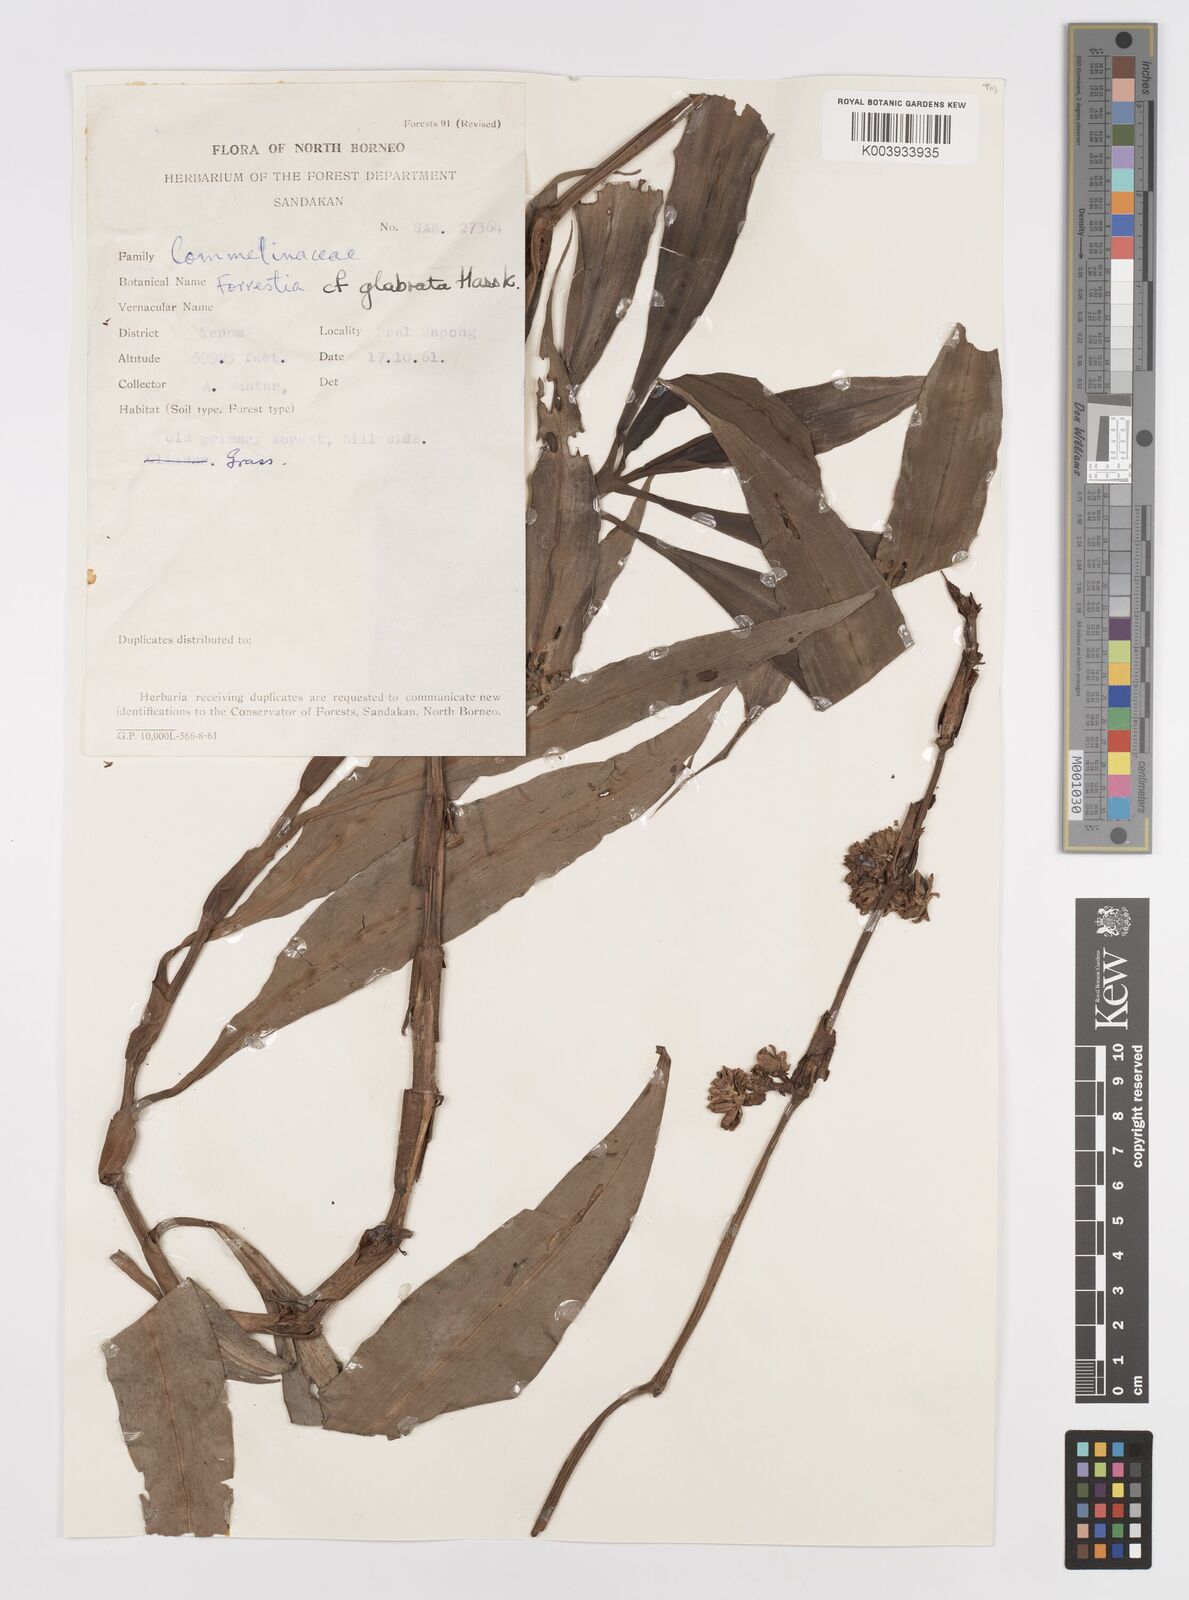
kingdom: Plantae
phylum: Tracheophyta
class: Liliopsida
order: Commelinales
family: Commelinaceae
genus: Amischotolype
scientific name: Amischotolype glabrata
